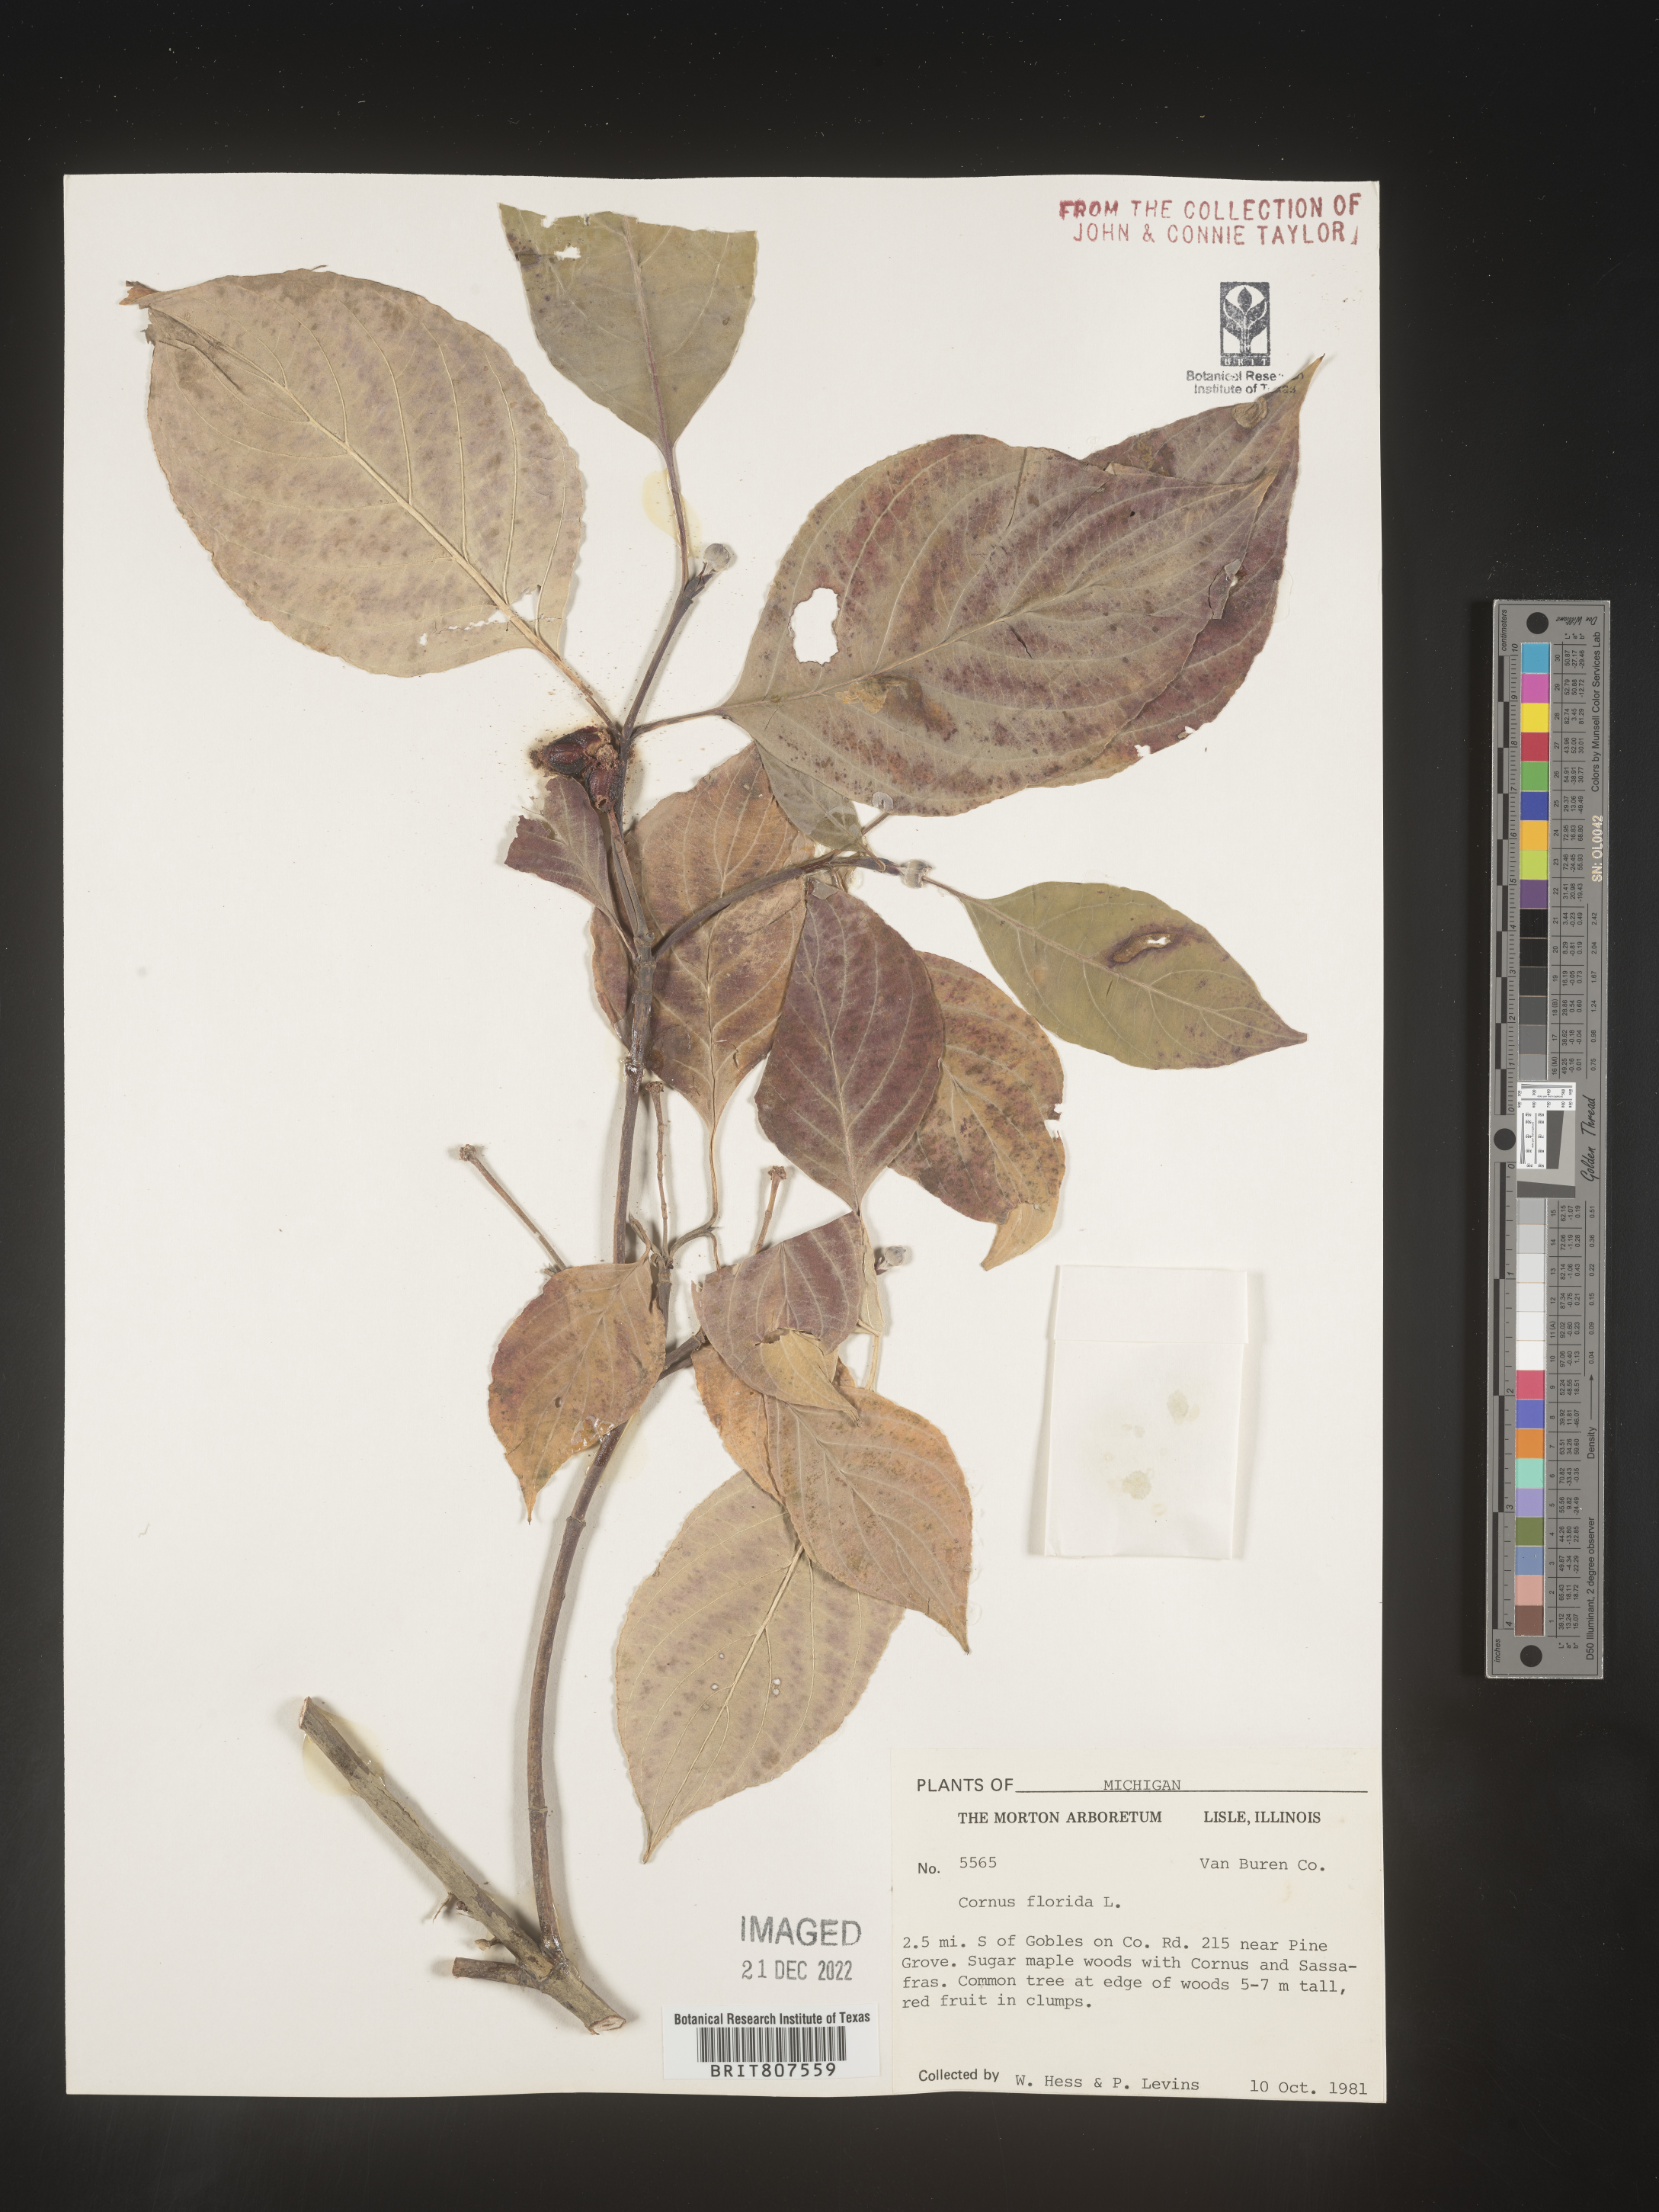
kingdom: Plantae
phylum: Tracheophyta
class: Magnoliopsida
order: Cornales
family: Cornaceae
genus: Cornus
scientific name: Cornus florida
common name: Flowering dogwood
